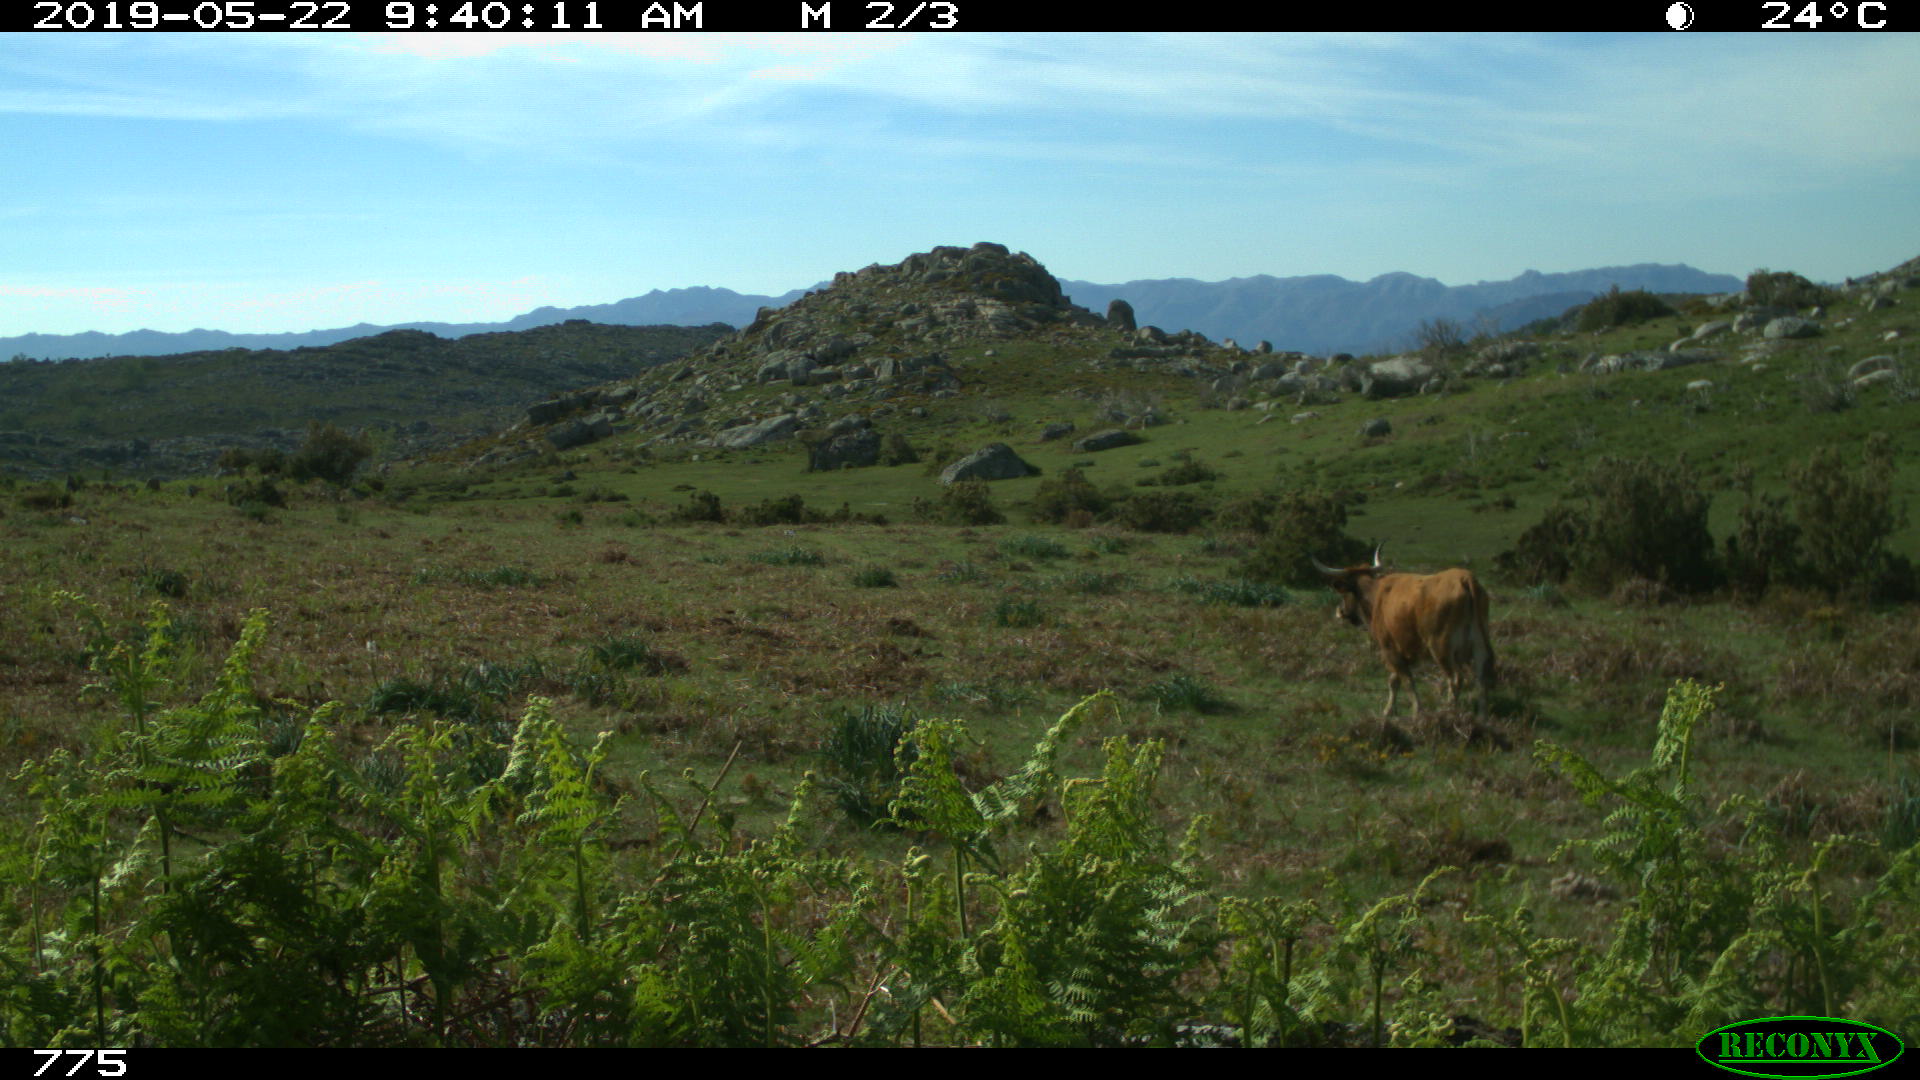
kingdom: Animalia
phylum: Chordata
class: Mammalia
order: Artiodactyla
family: Bovidae
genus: Bos
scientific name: Bos taurus
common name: Domesticated cattle
